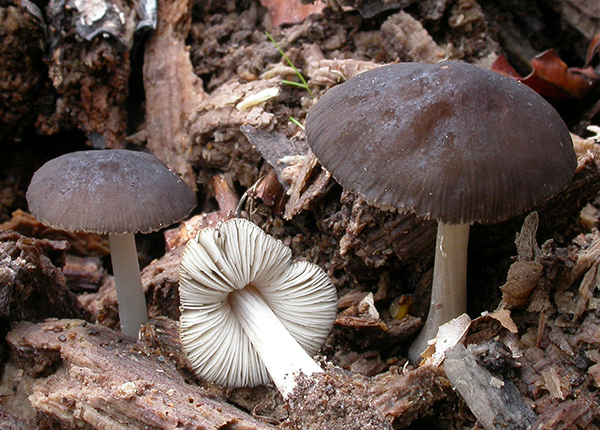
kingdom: Fungi
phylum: Basidiomycota
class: Agaricomycetes
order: Agaricales
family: Pluteaceae
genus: Pluteus
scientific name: Pluteus
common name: pudret skærmhat
